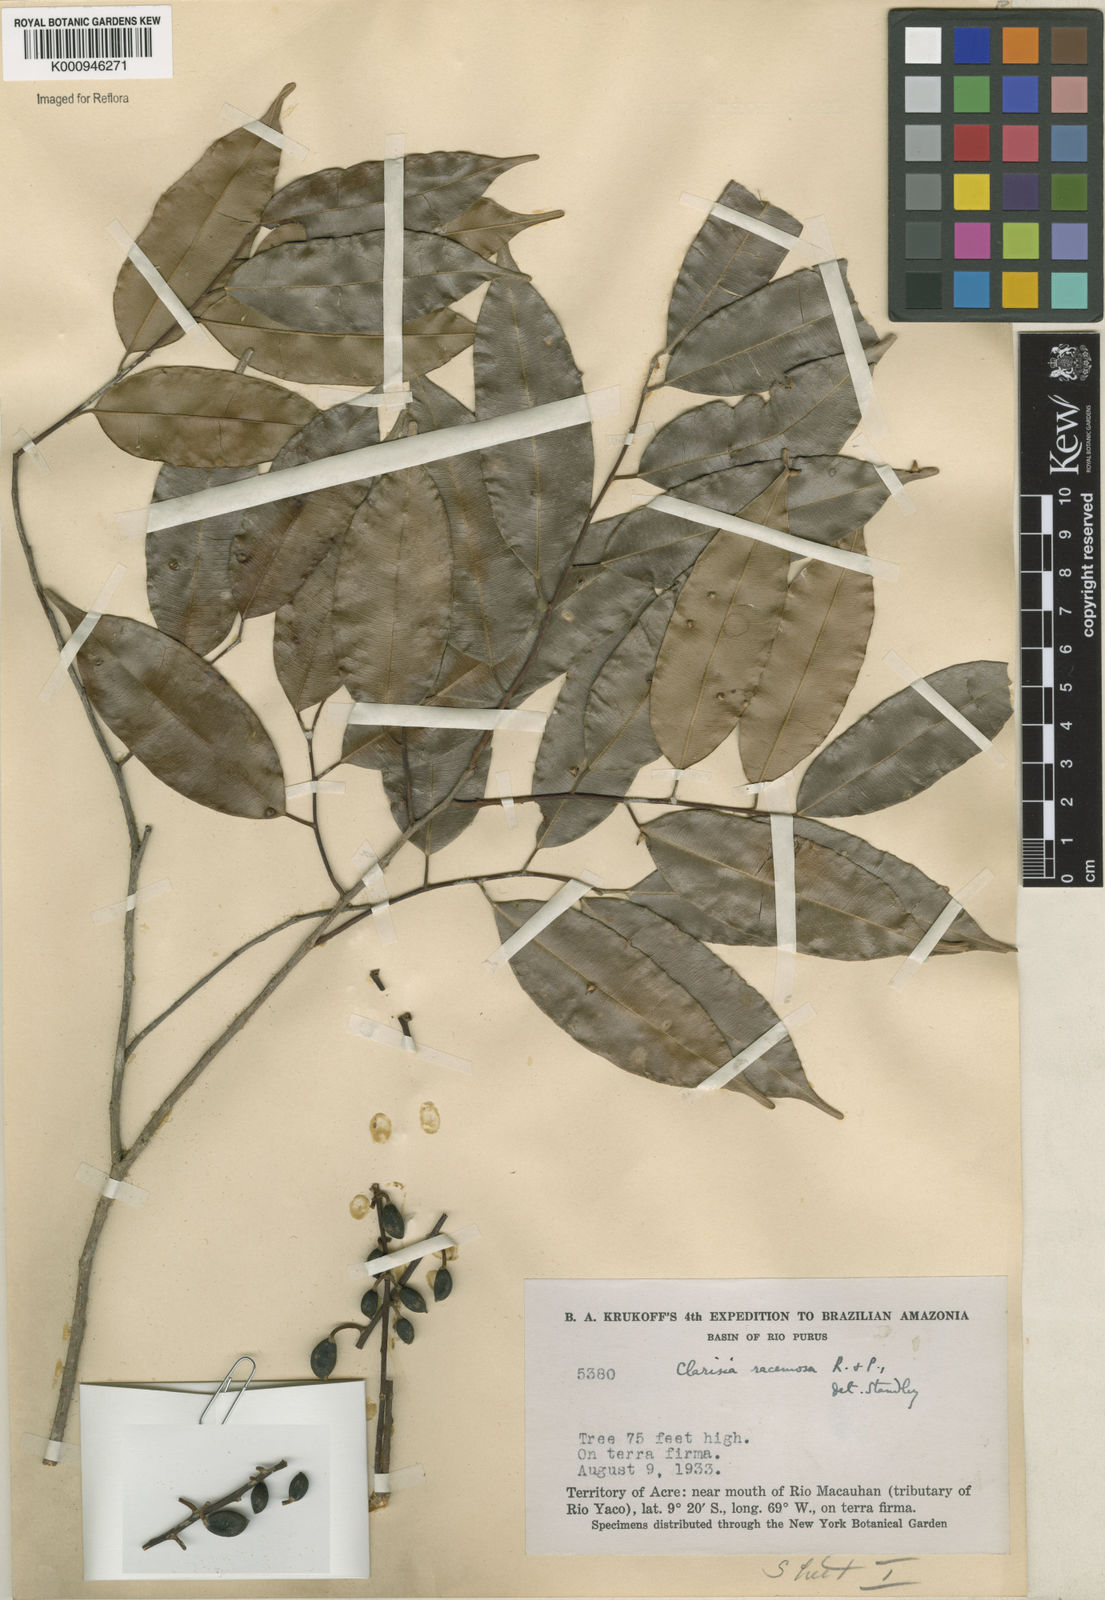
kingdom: Plantae
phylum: Tracheophyta
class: Magnoliopsida
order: Rosales
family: Moraceae
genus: Clarisia
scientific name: Clarisia racemosa
